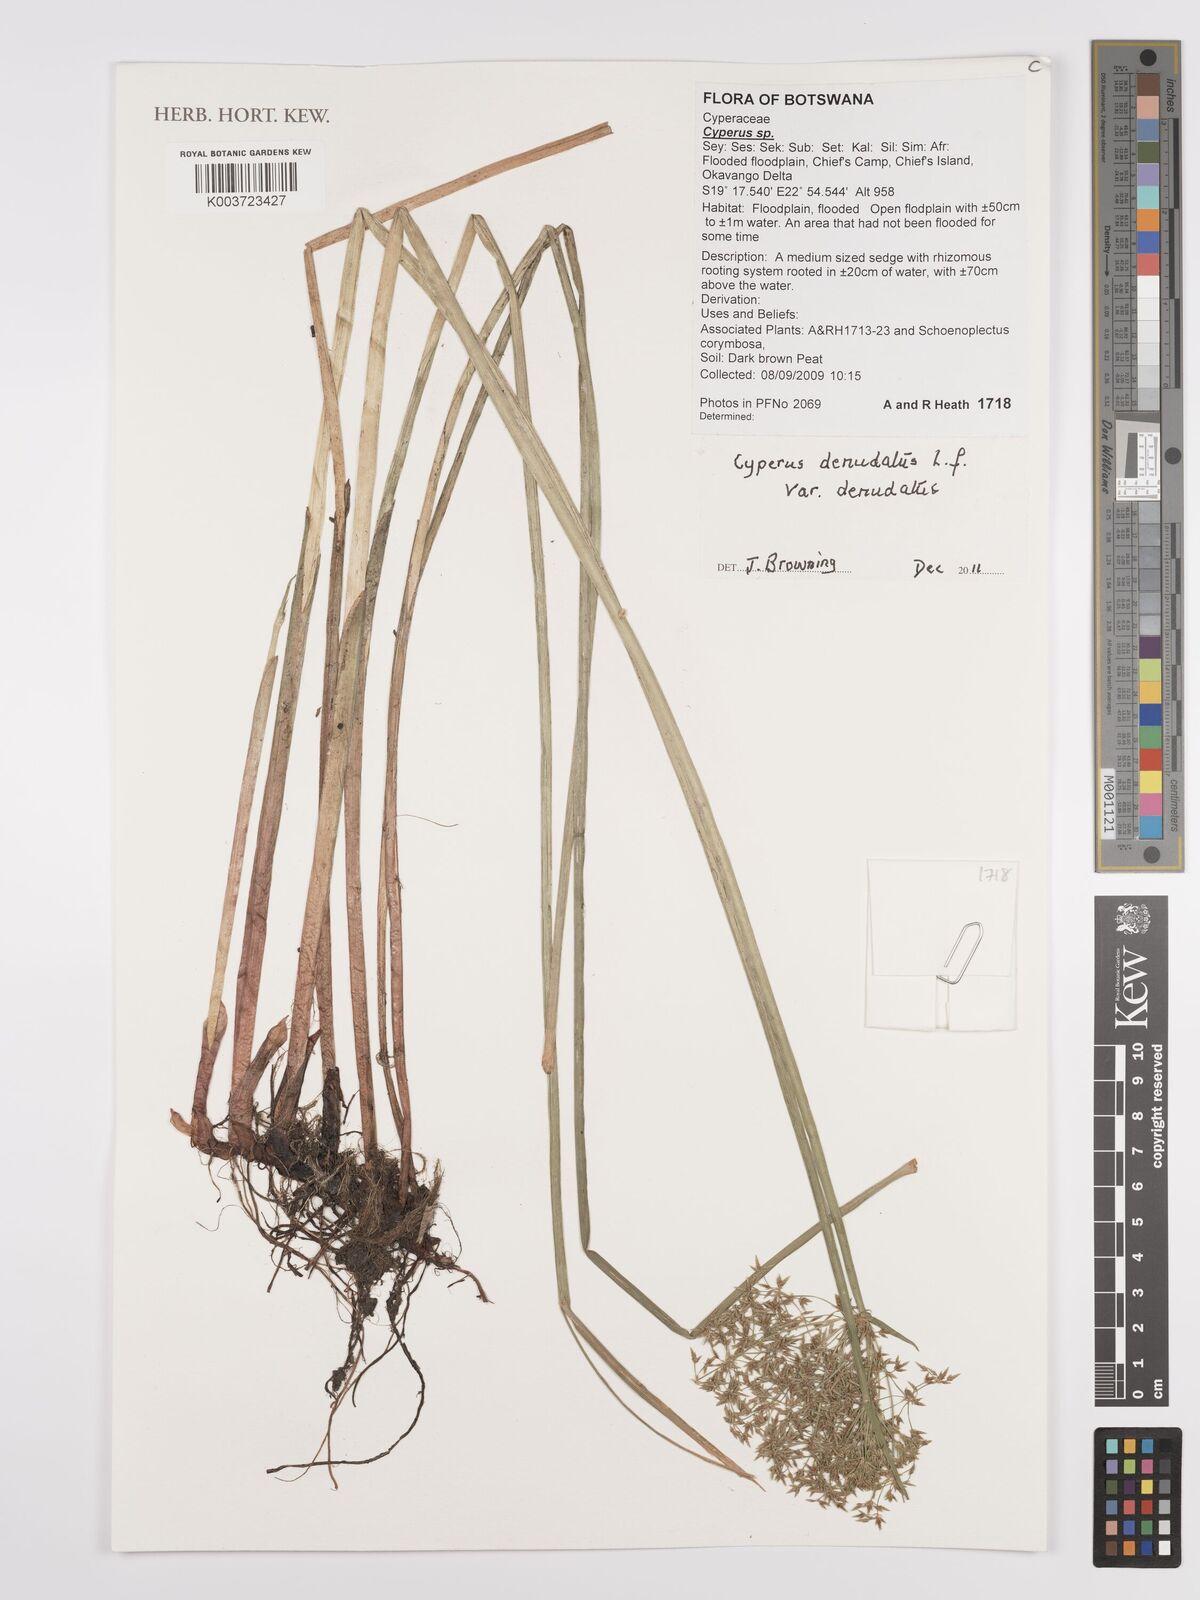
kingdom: Plantae
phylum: Tracheophyta
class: Liliopsida
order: Poales
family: Cyperaceae
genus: Cyperus
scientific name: Cyperus denudatus
